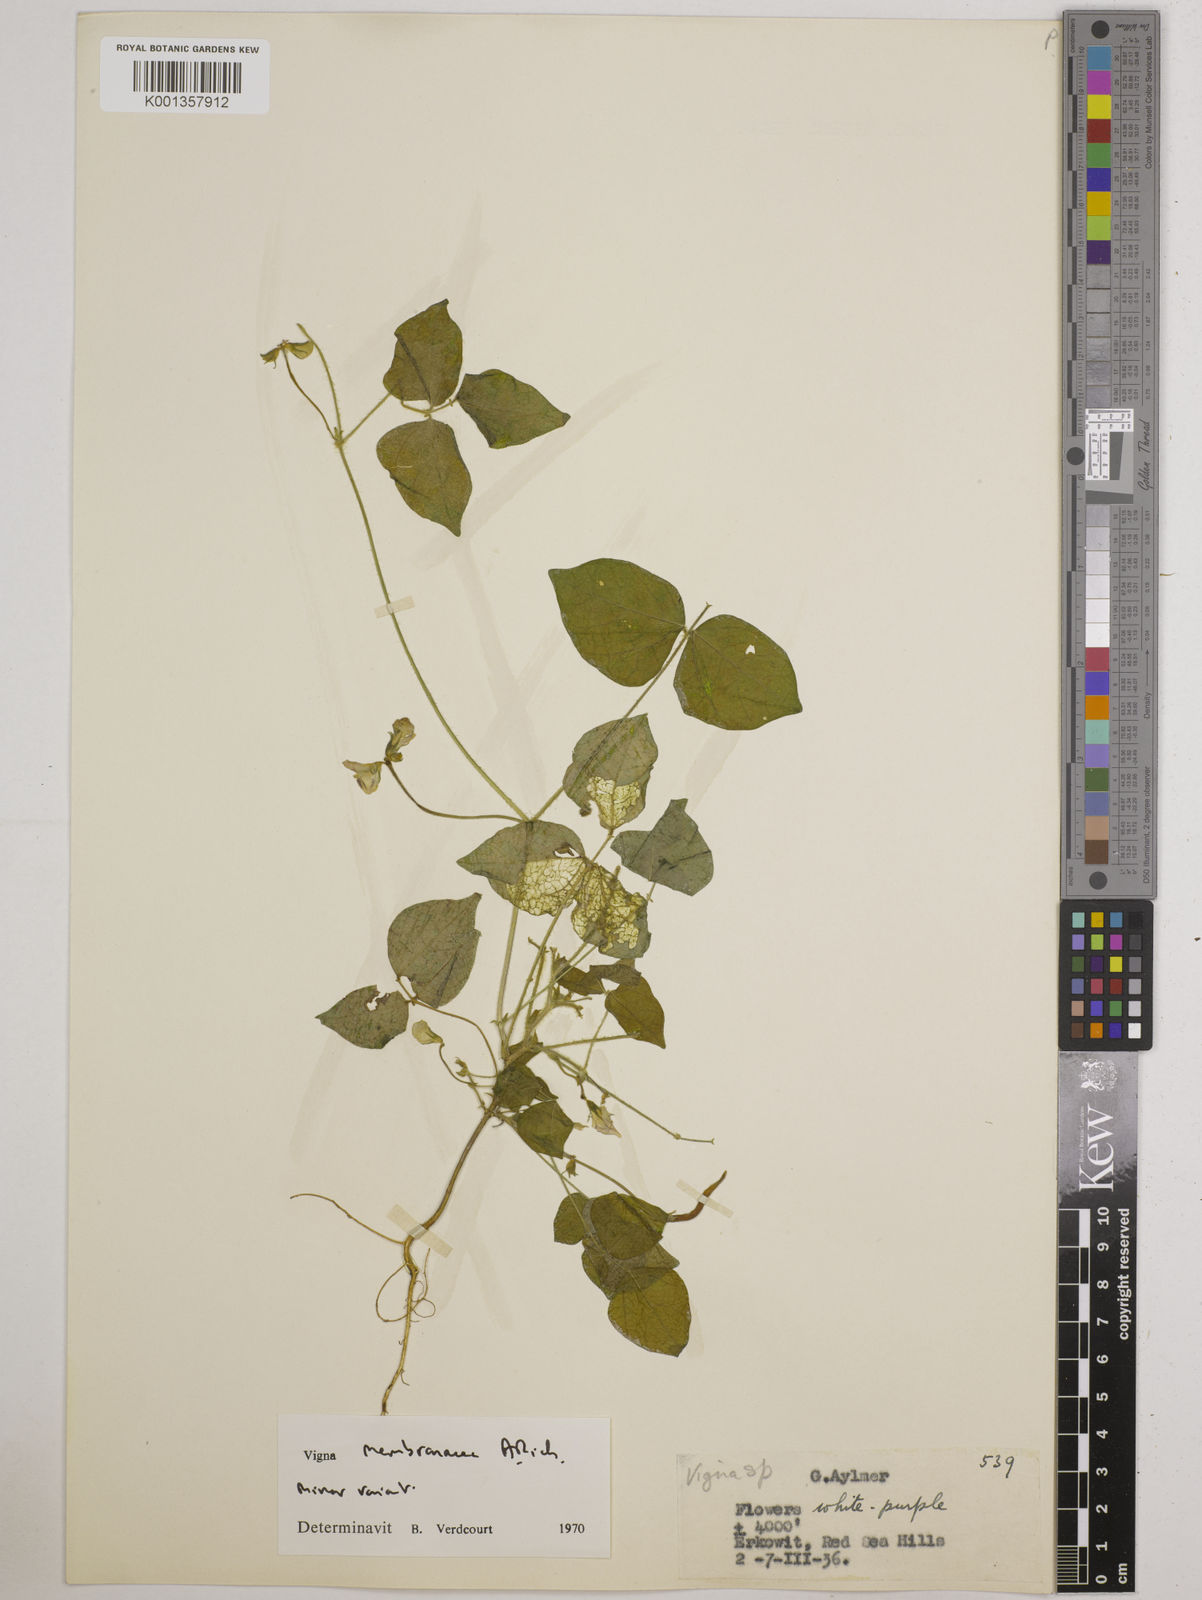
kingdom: Plantae
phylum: Tracheophyta
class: Magnoliopsida
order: Fabales
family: Fabaceae
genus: Vigna
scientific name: Vigna
